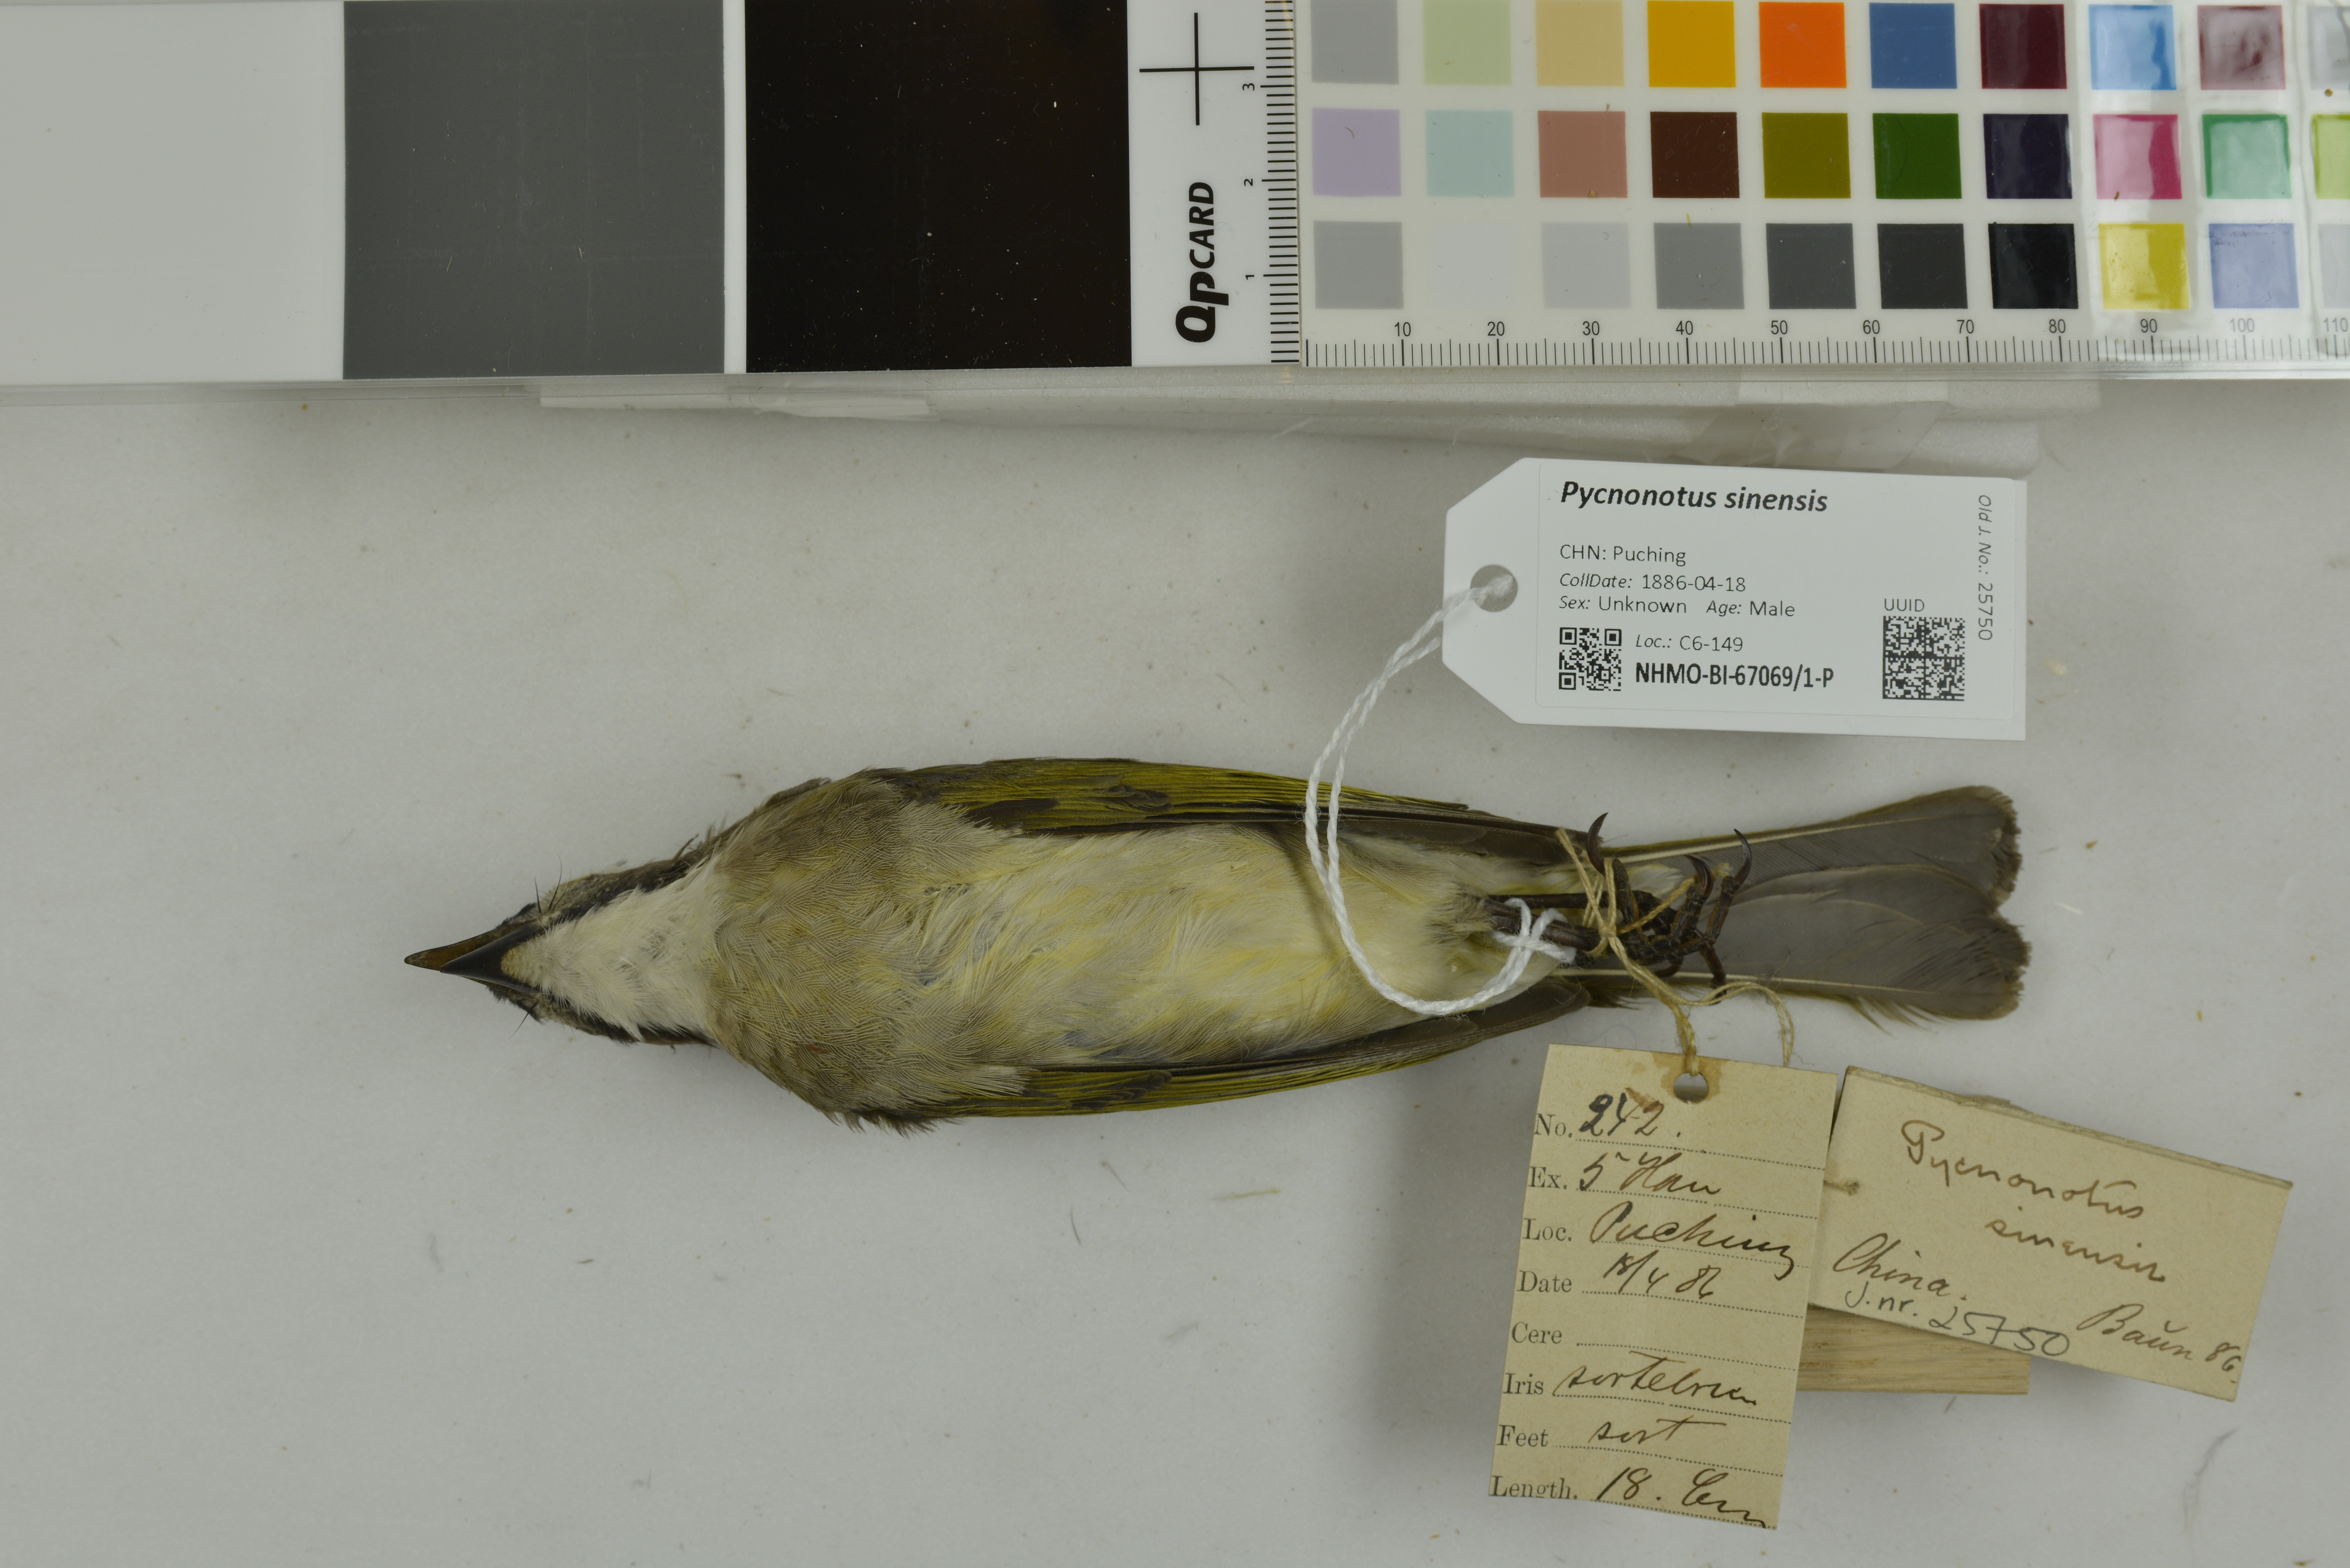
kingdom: Animalia
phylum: Chordata
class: Aves
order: Passeriformes
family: Pycnonotidae
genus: Pycnonotus
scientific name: Pycnonotus sinensis
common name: Light-vented bulbul
